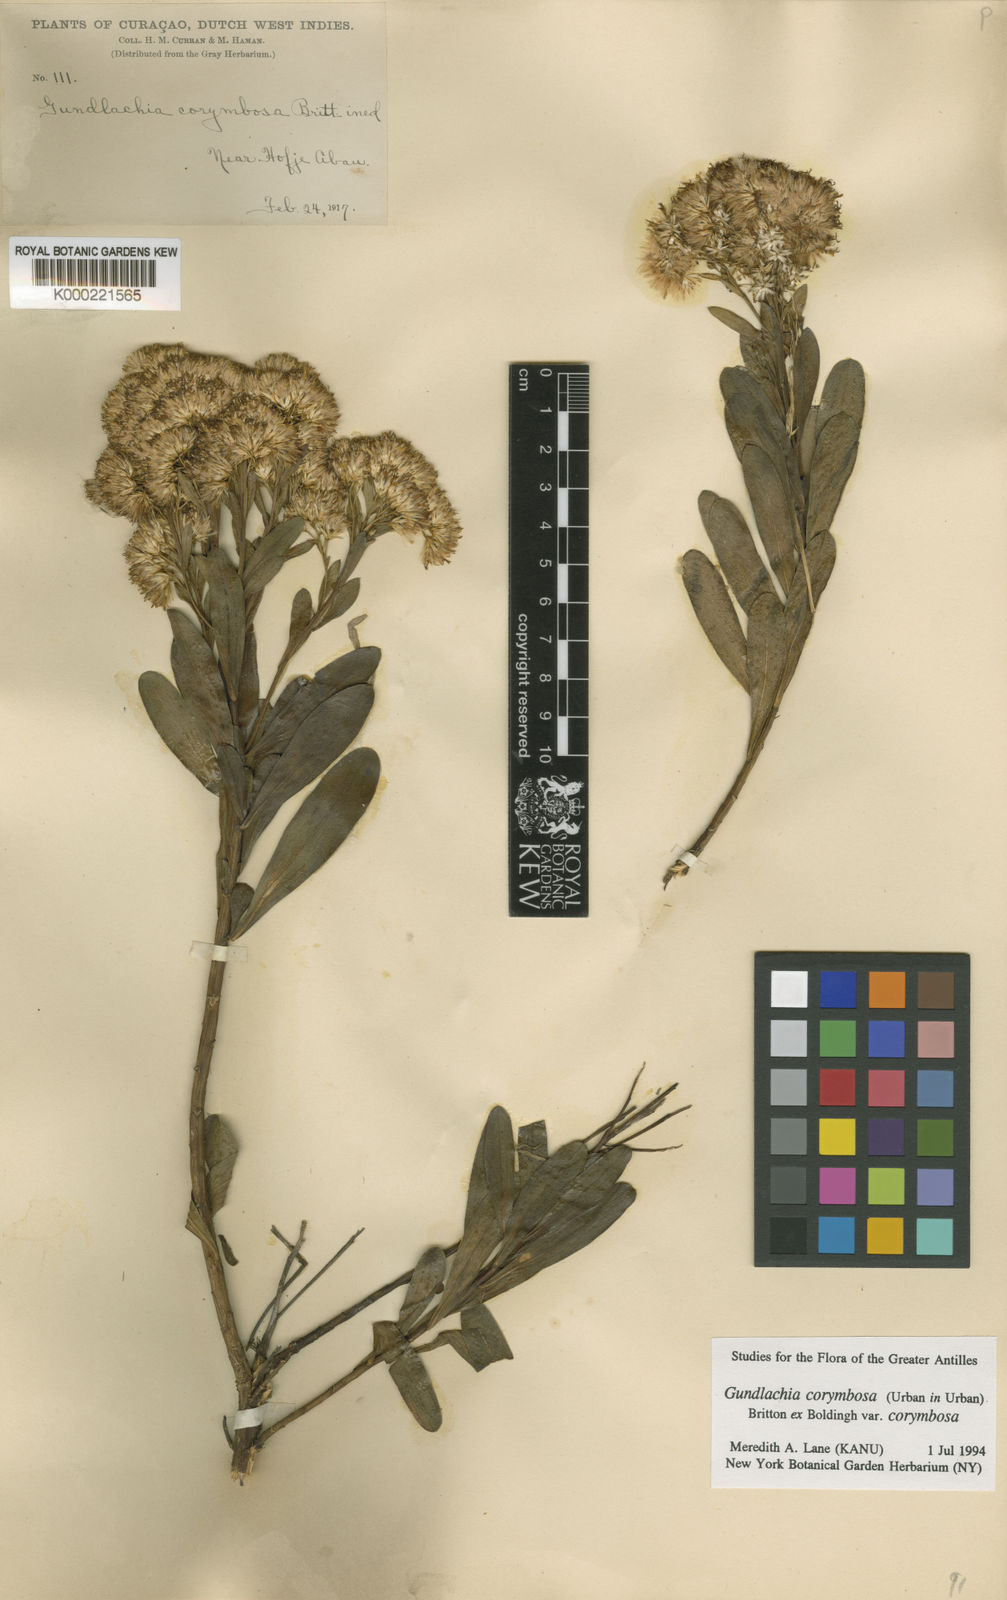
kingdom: Plantae
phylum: Tracheophyta
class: Magnoliopsida
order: Asterales
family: Asteraceae
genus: Gundlachia
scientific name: Gundlachia corymbosa
